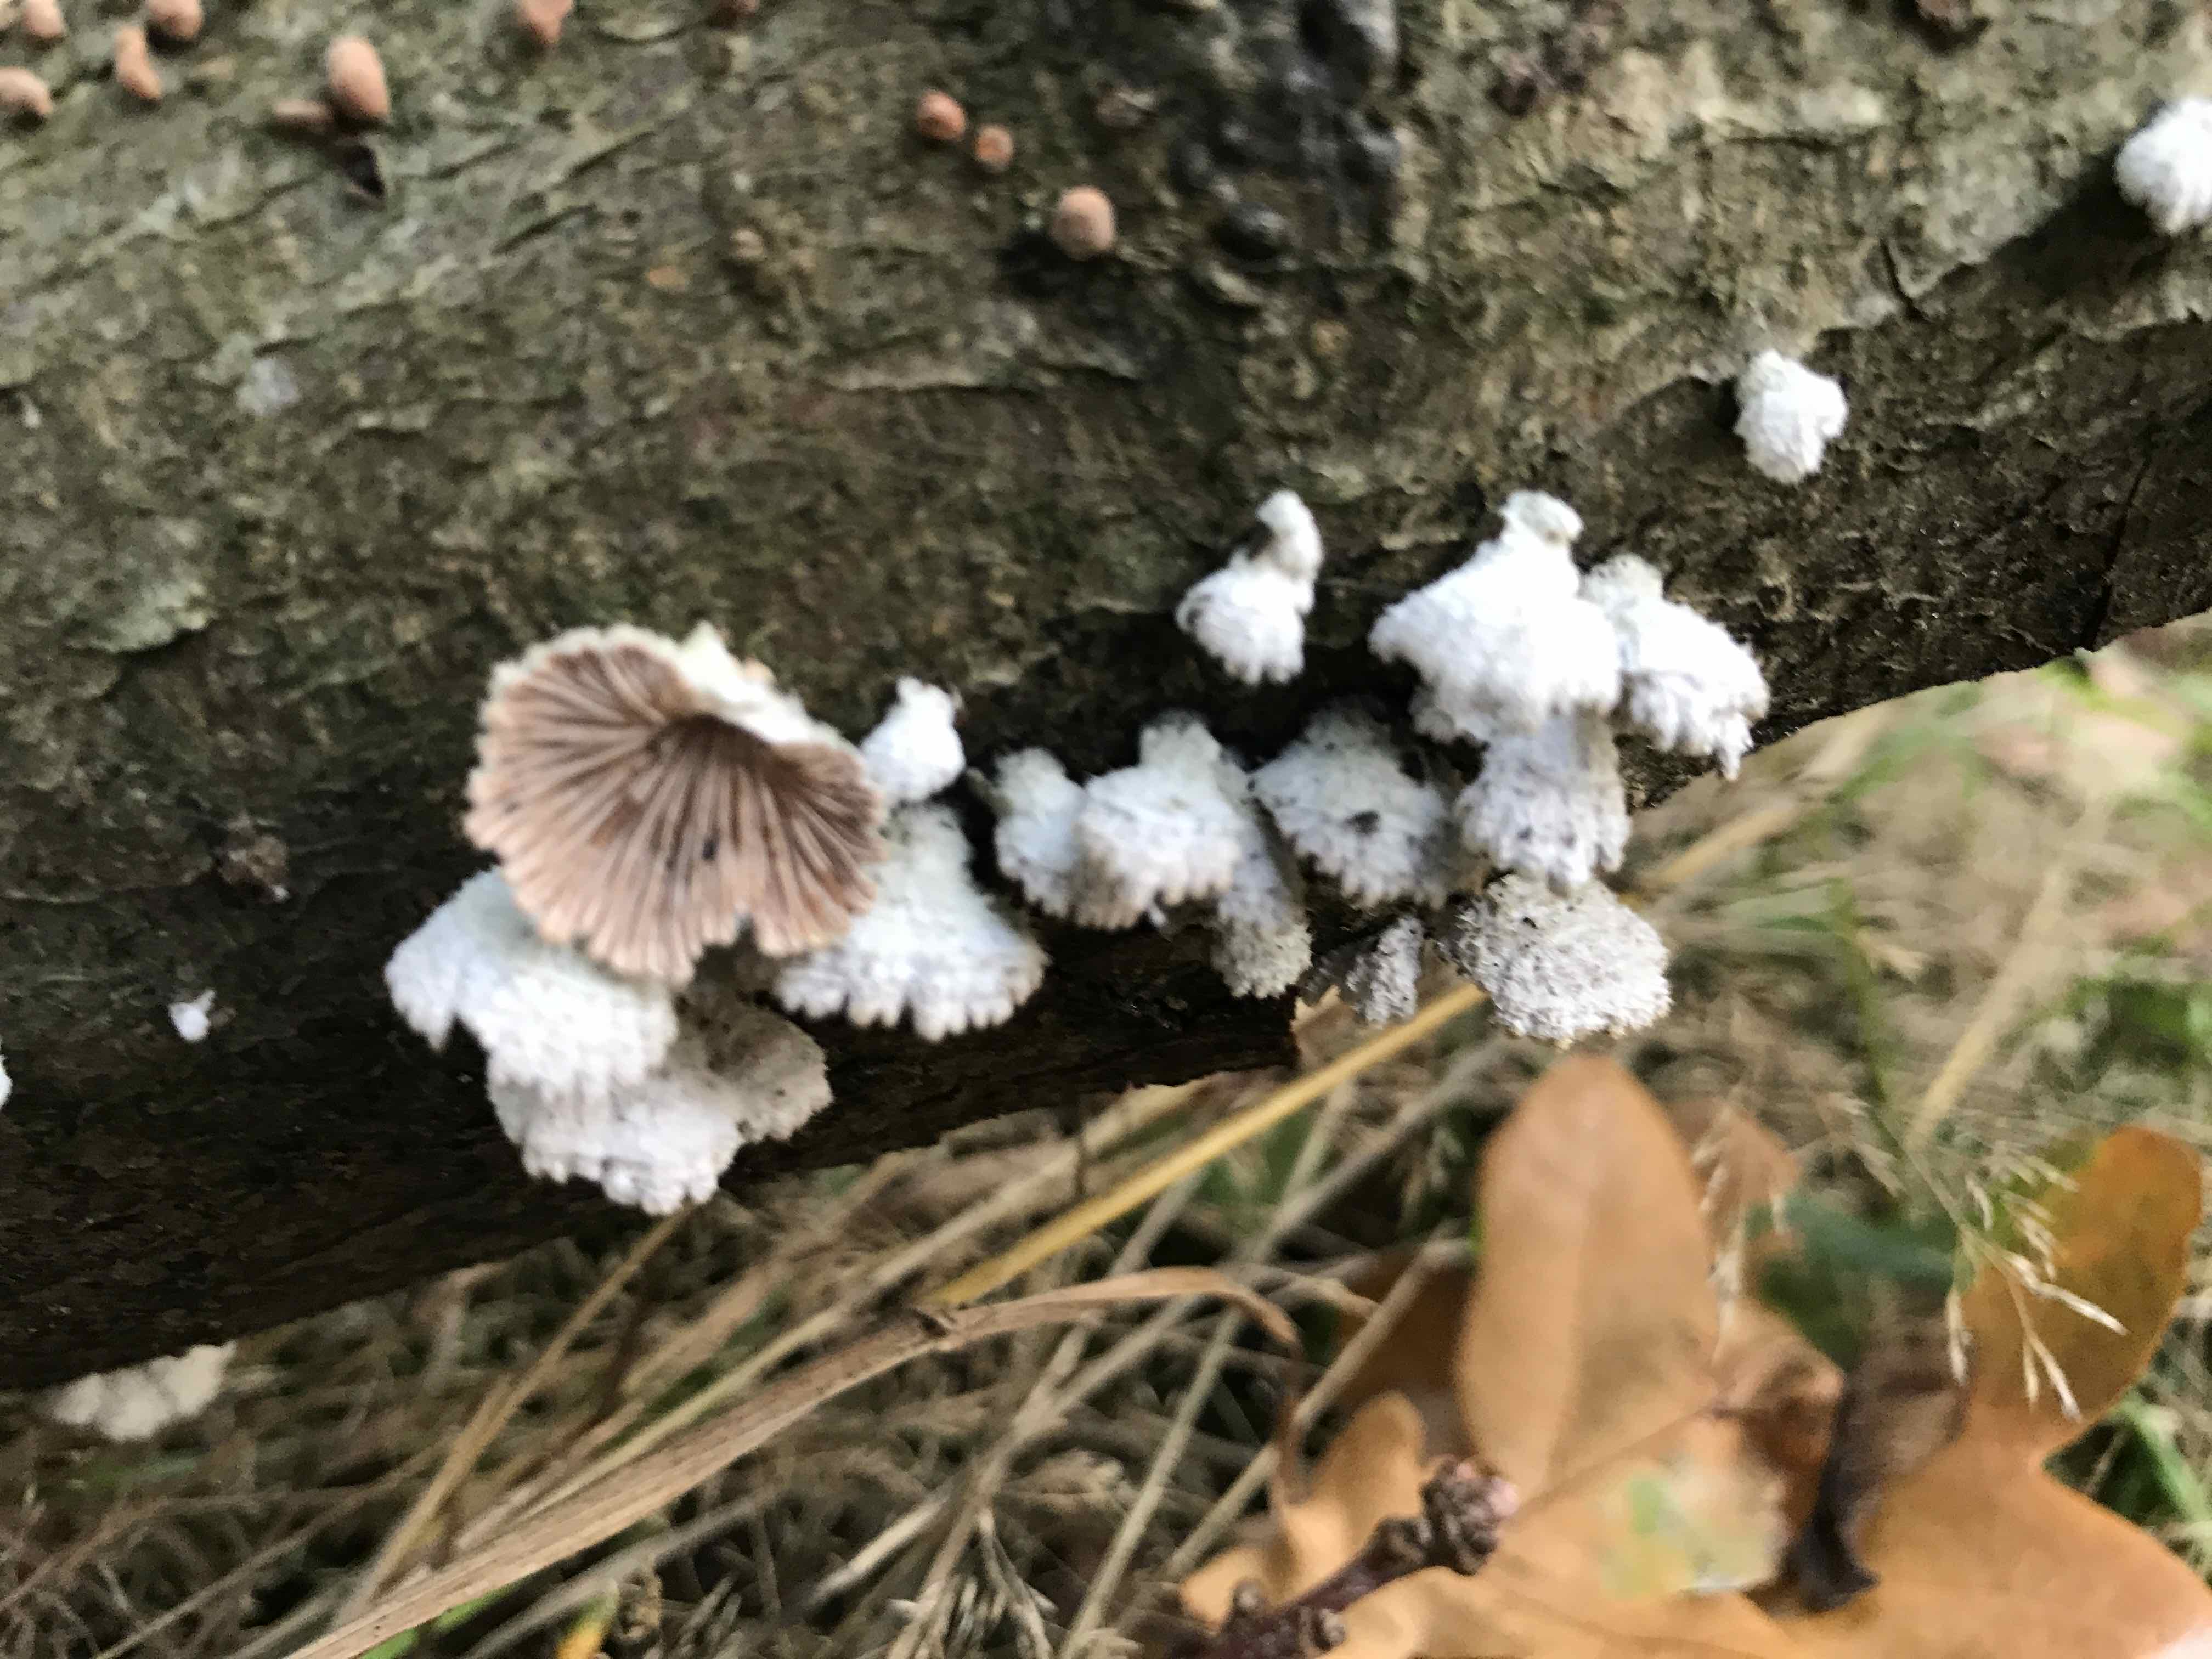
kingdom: Fungi
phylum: Basidiomycota
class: Agaricomycetes
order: Agaricales
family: Schizophyllaceae
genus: Schizophyllum
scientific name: Schizophyllum commune
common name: kløvblad
